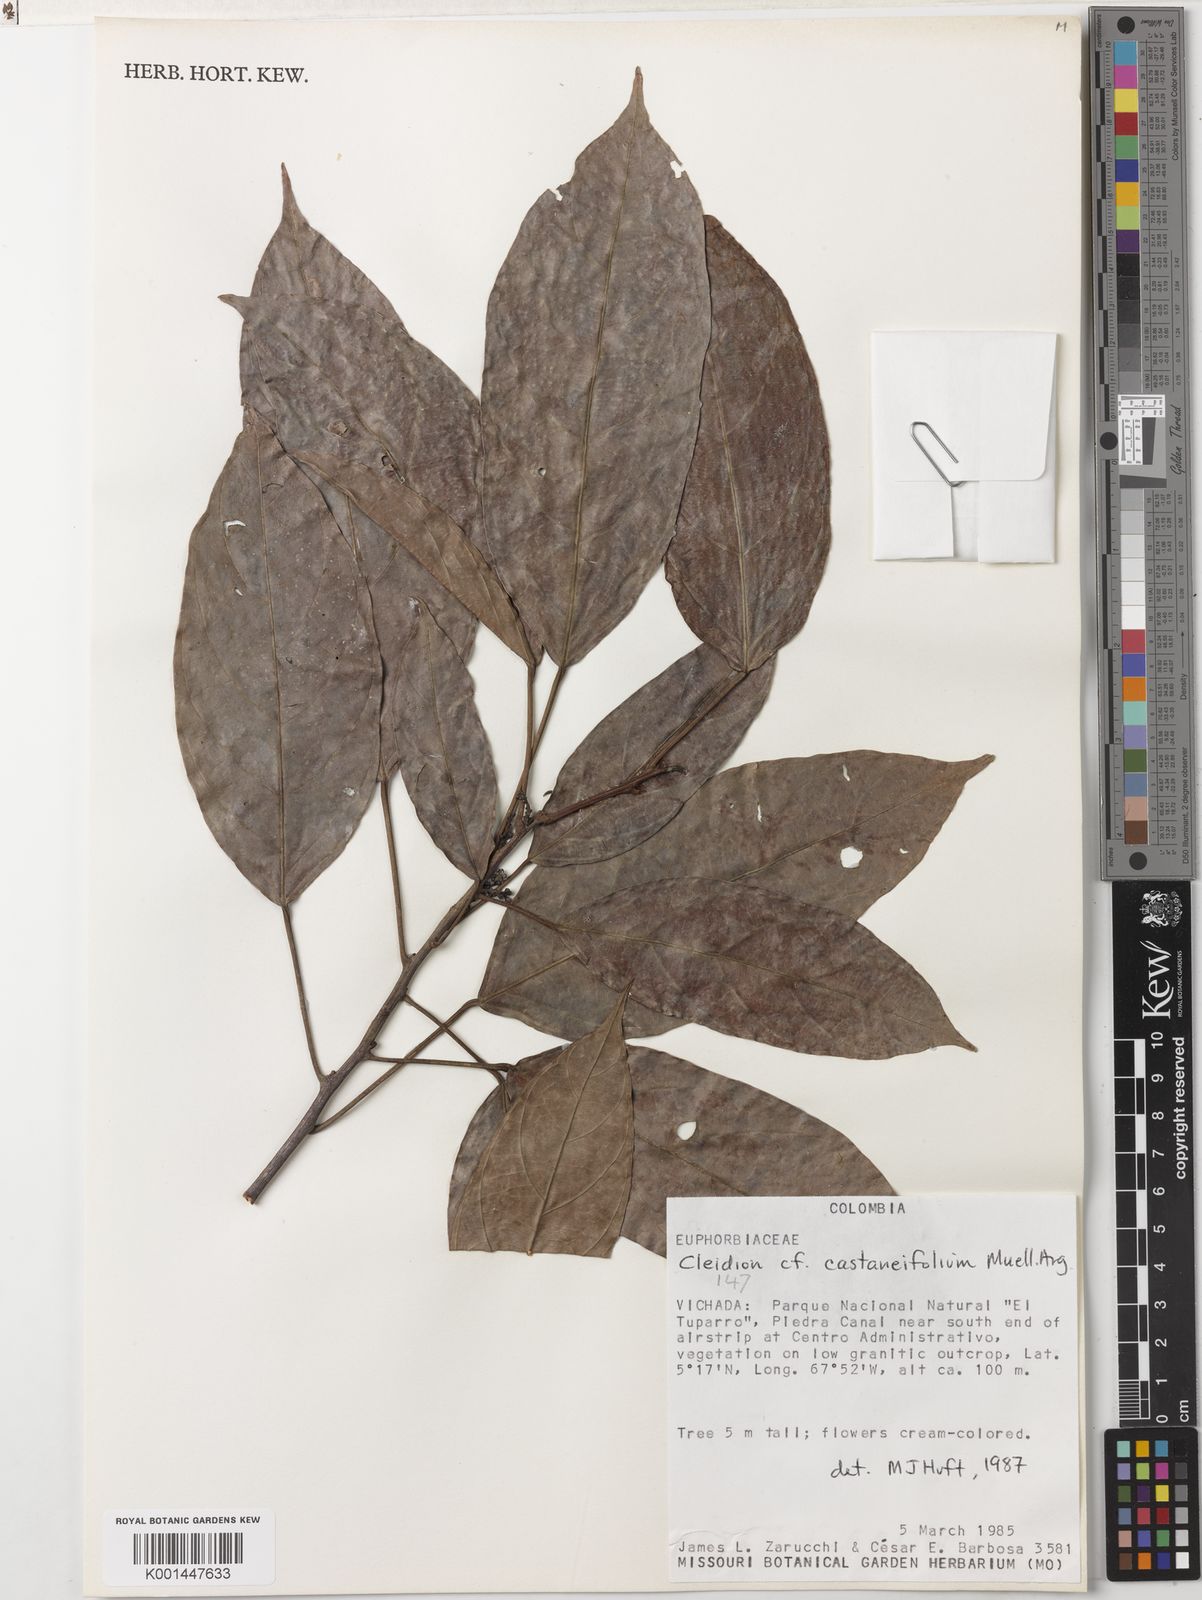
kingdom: Plantae
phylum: Tracheophyta
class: Magnoliopsida
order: Malpighiales
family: Euphorbiaceae
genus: Cleidion
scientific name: Cleidion castaneifolium
